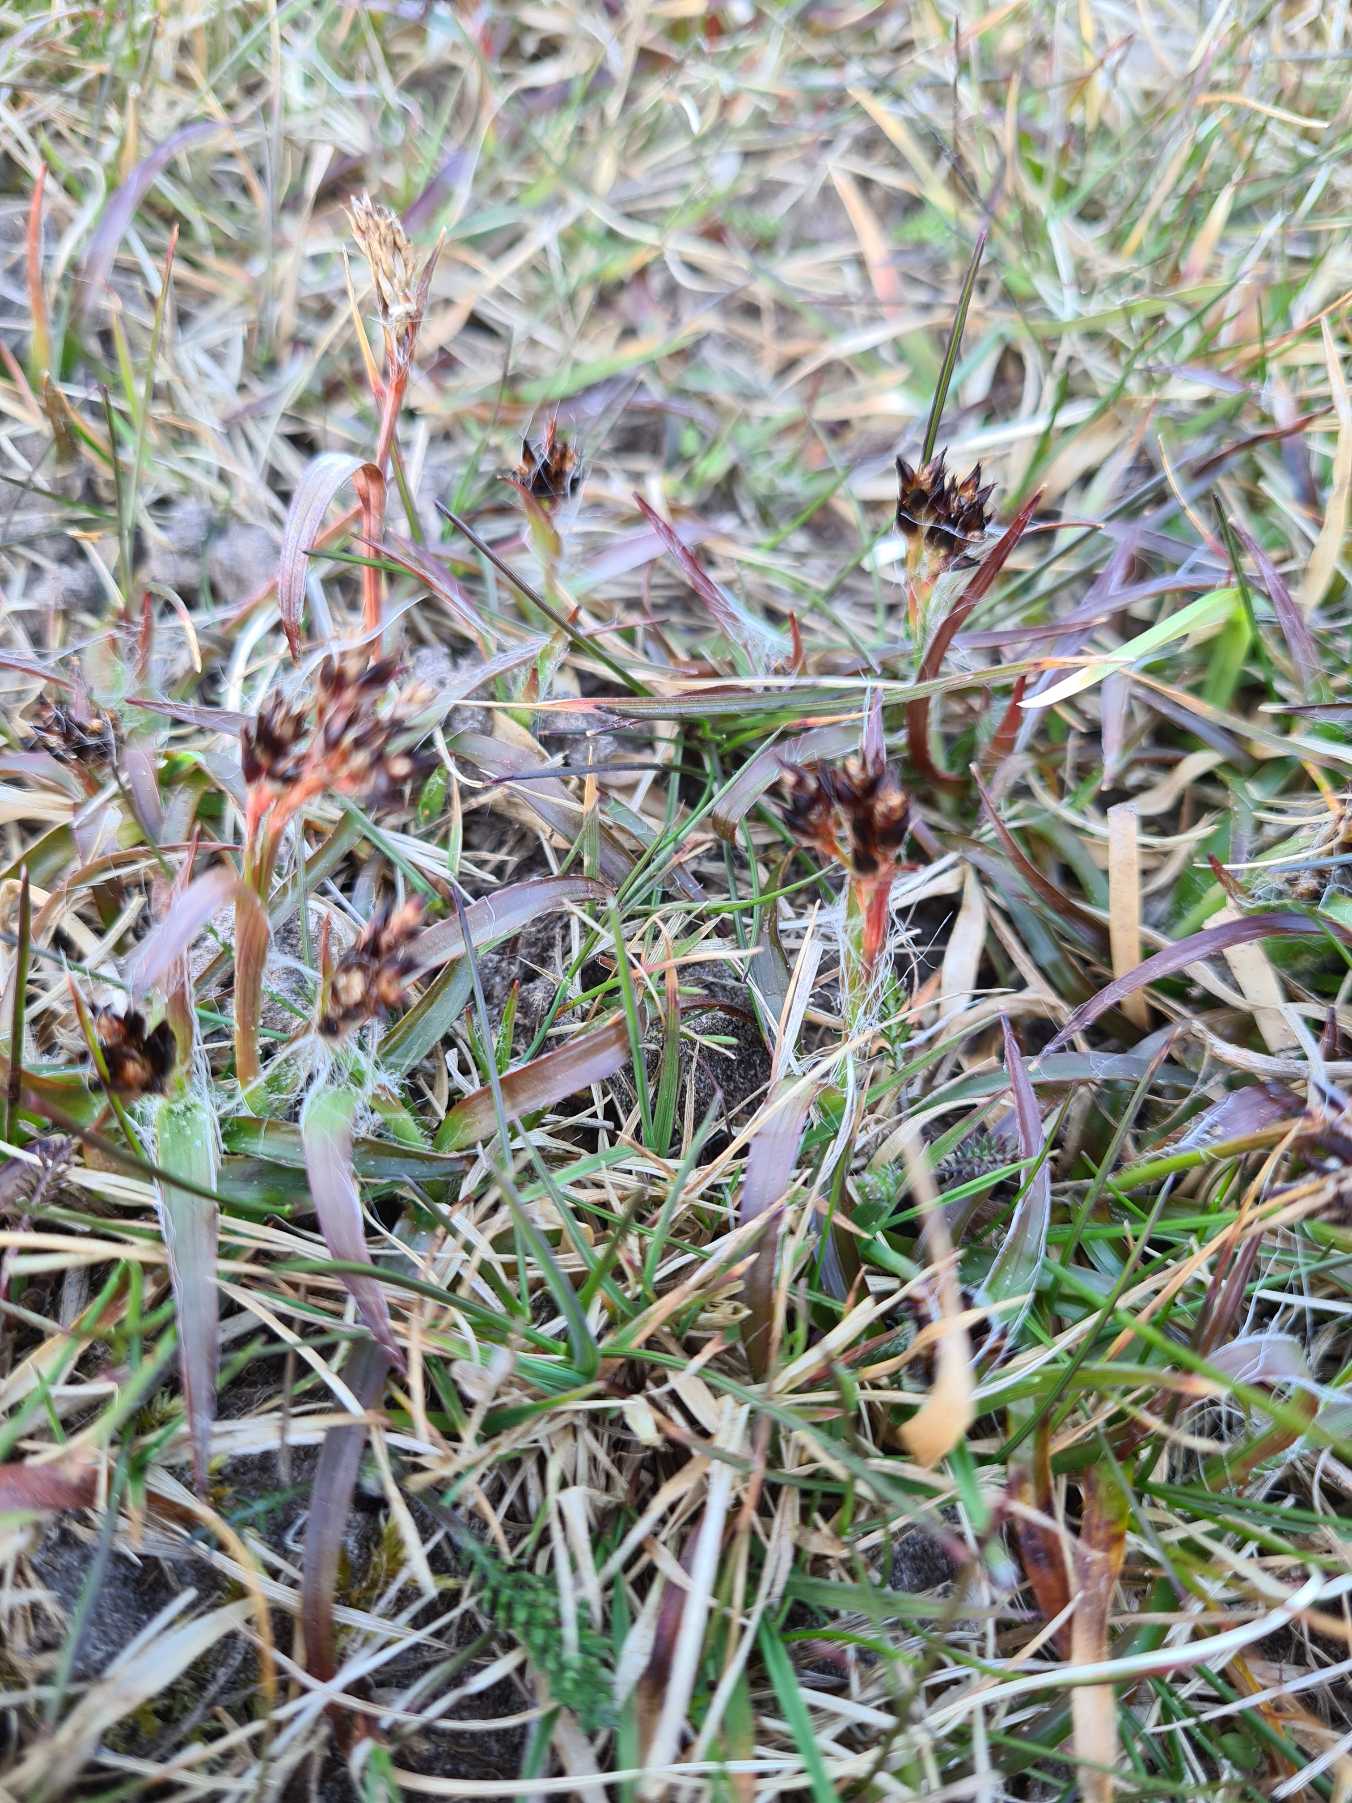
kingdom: Plantae
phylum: Tracheophyta
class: Liliopsida
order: Poales
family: Juncaceae
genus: Luzula
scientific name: Luzula campestris
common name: Mark-frytle
